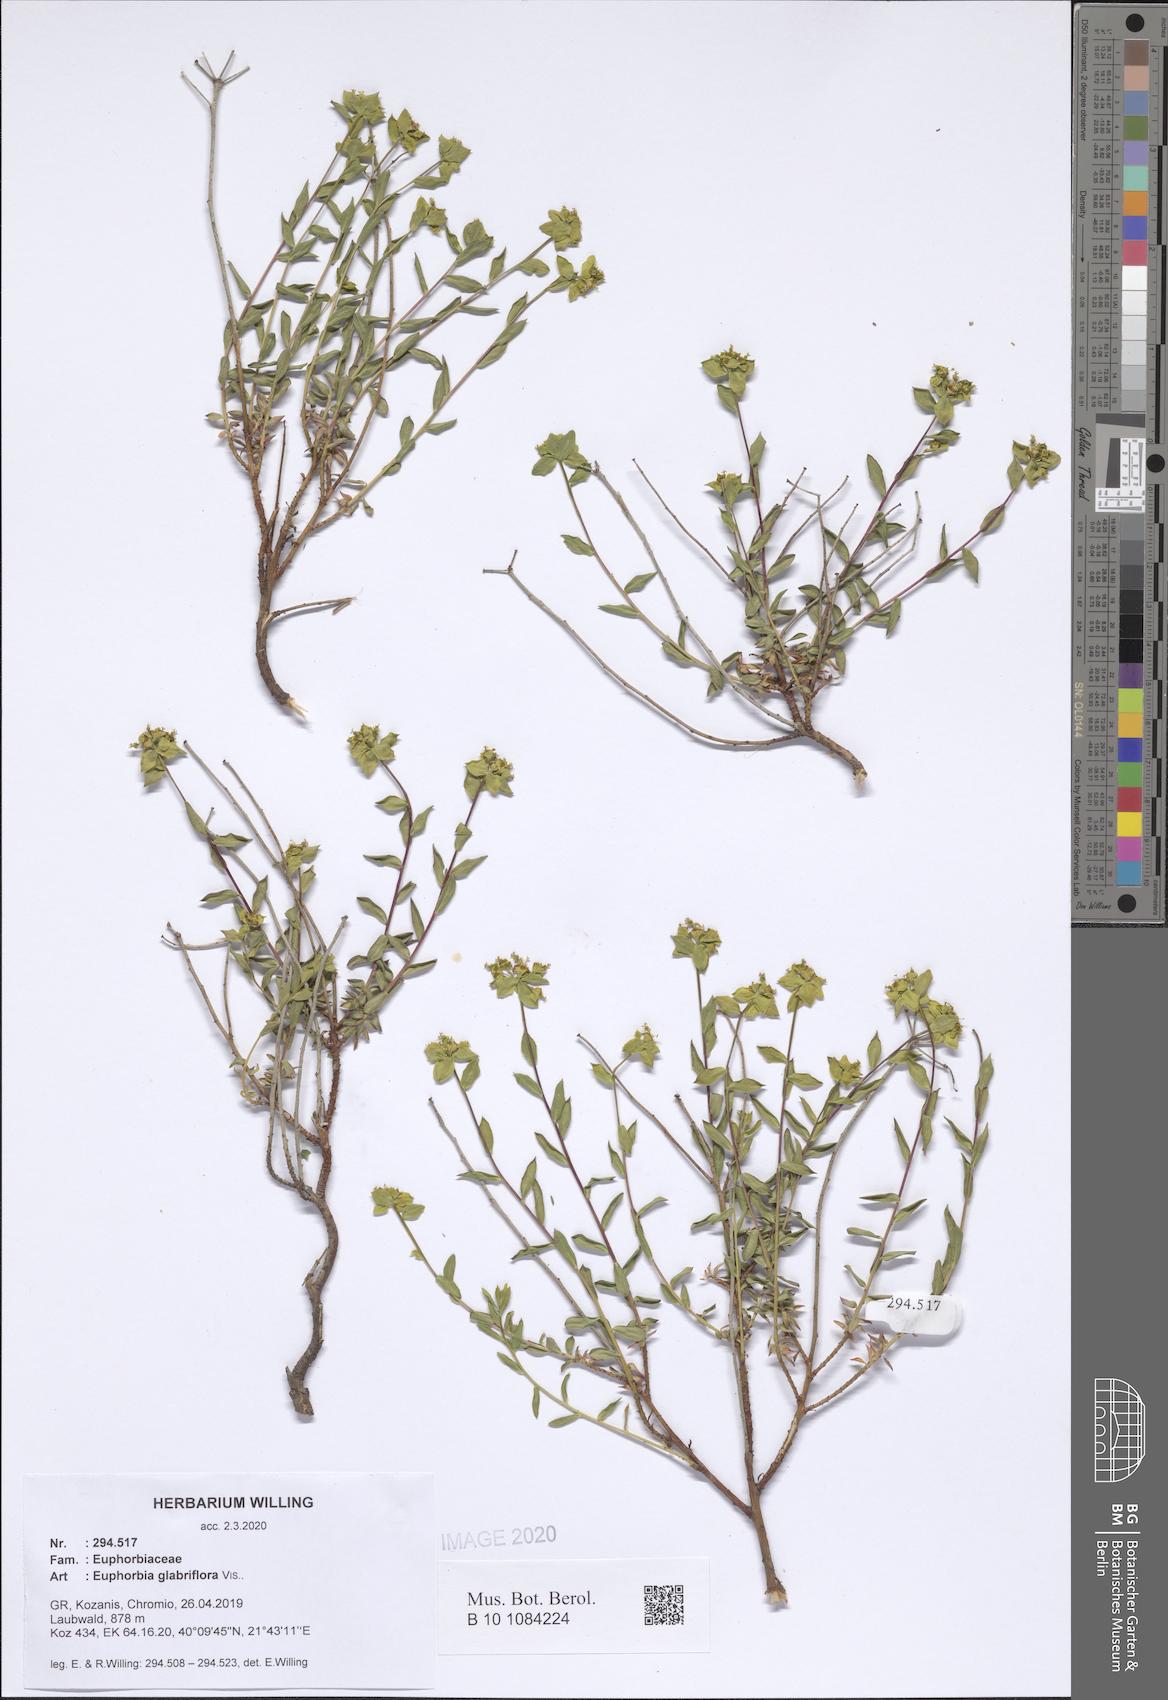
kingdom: Plantae
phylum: Tracheophyta
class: Magnoliopsida
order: Malpighiales
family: Euphorbiaceae
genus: Euphorbia
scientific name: Euphorbia spinosa
